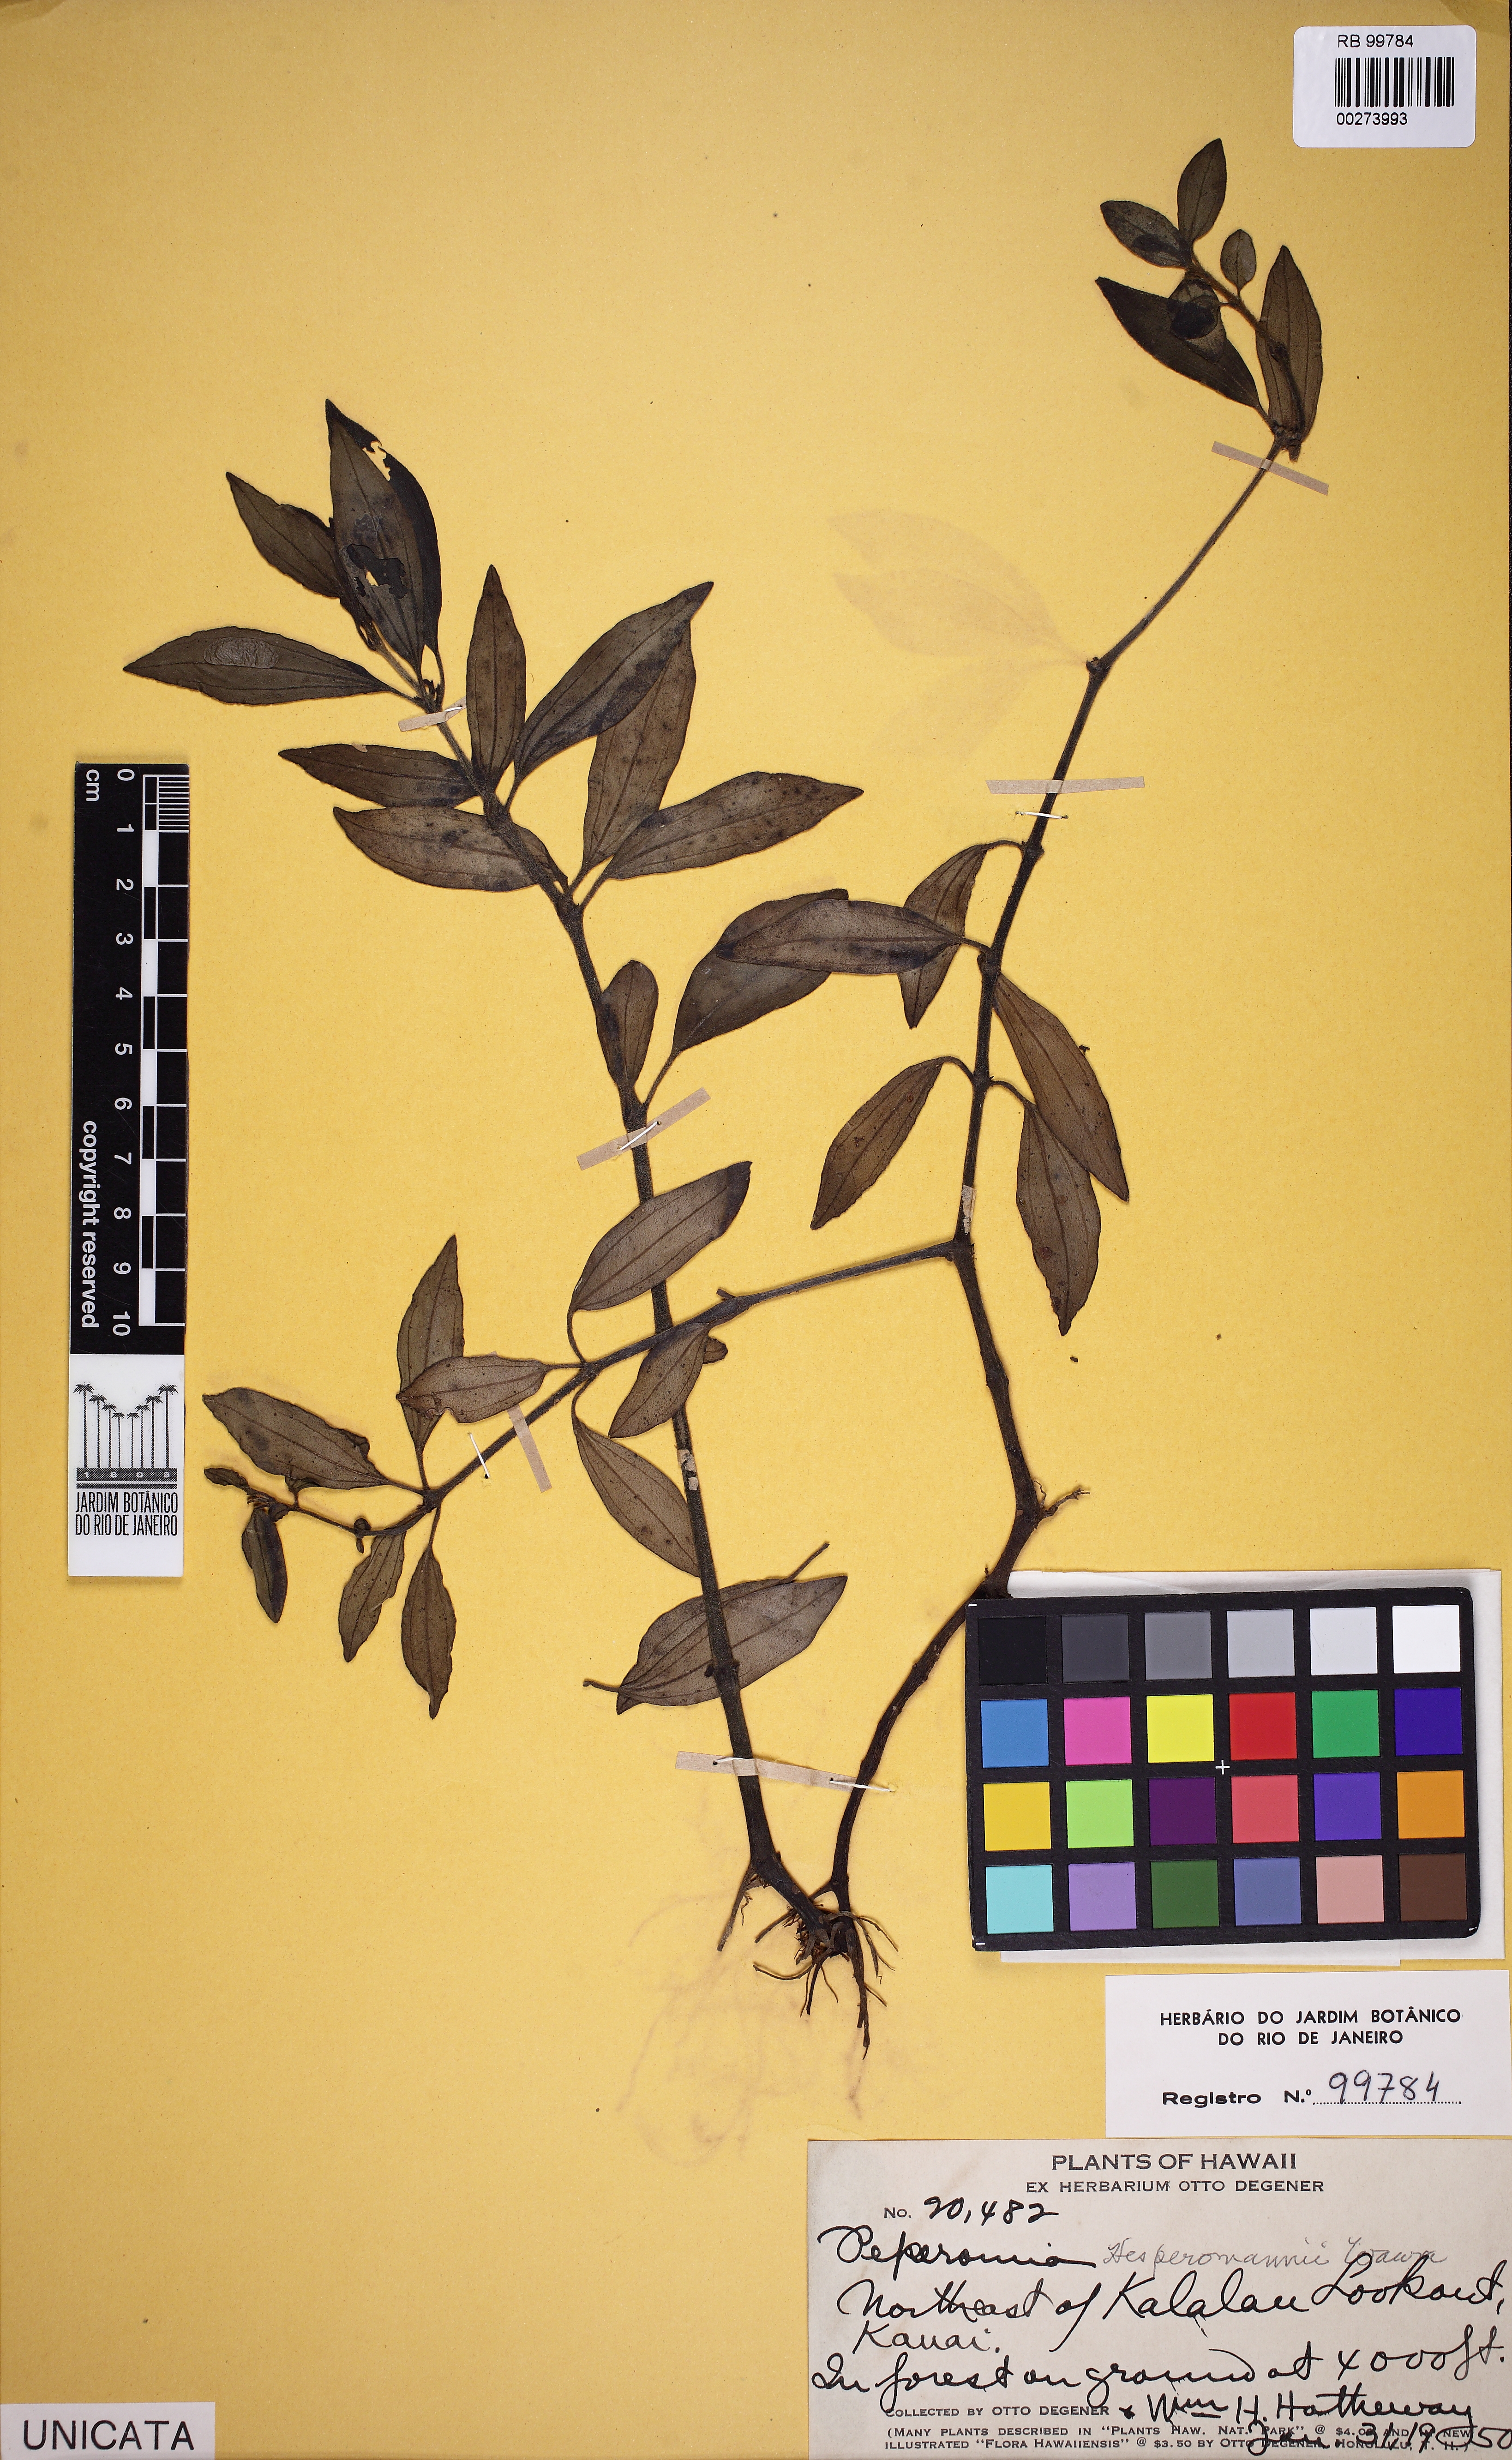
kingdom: Plantae
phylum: Tracheophyta
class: Magnoliopsida
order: Piperales
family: Piperaceae
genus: Peperomia
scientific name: Peperomia hesperomannii
